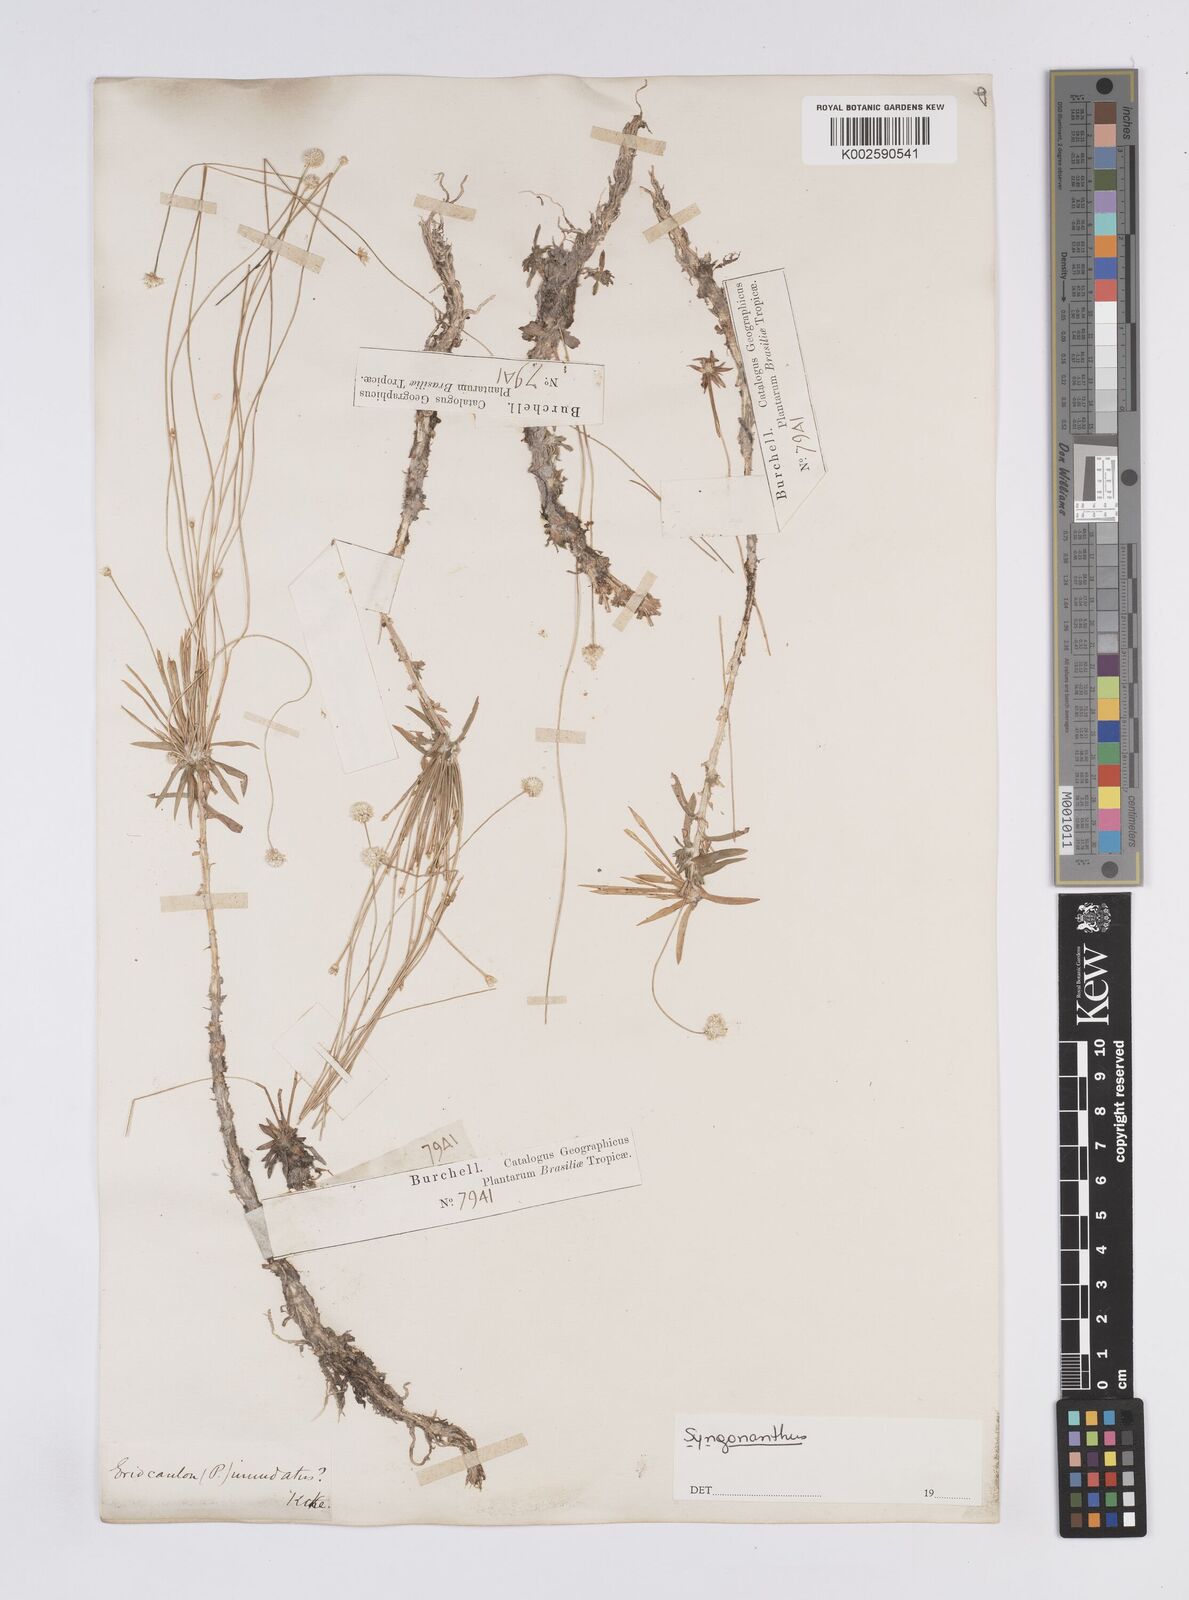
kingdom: Plantae
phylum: Tracheophyta
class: Liliopsida
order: Poales
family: Eriocaulaceae
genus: Syngonanthus
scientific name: Syngonanthus
